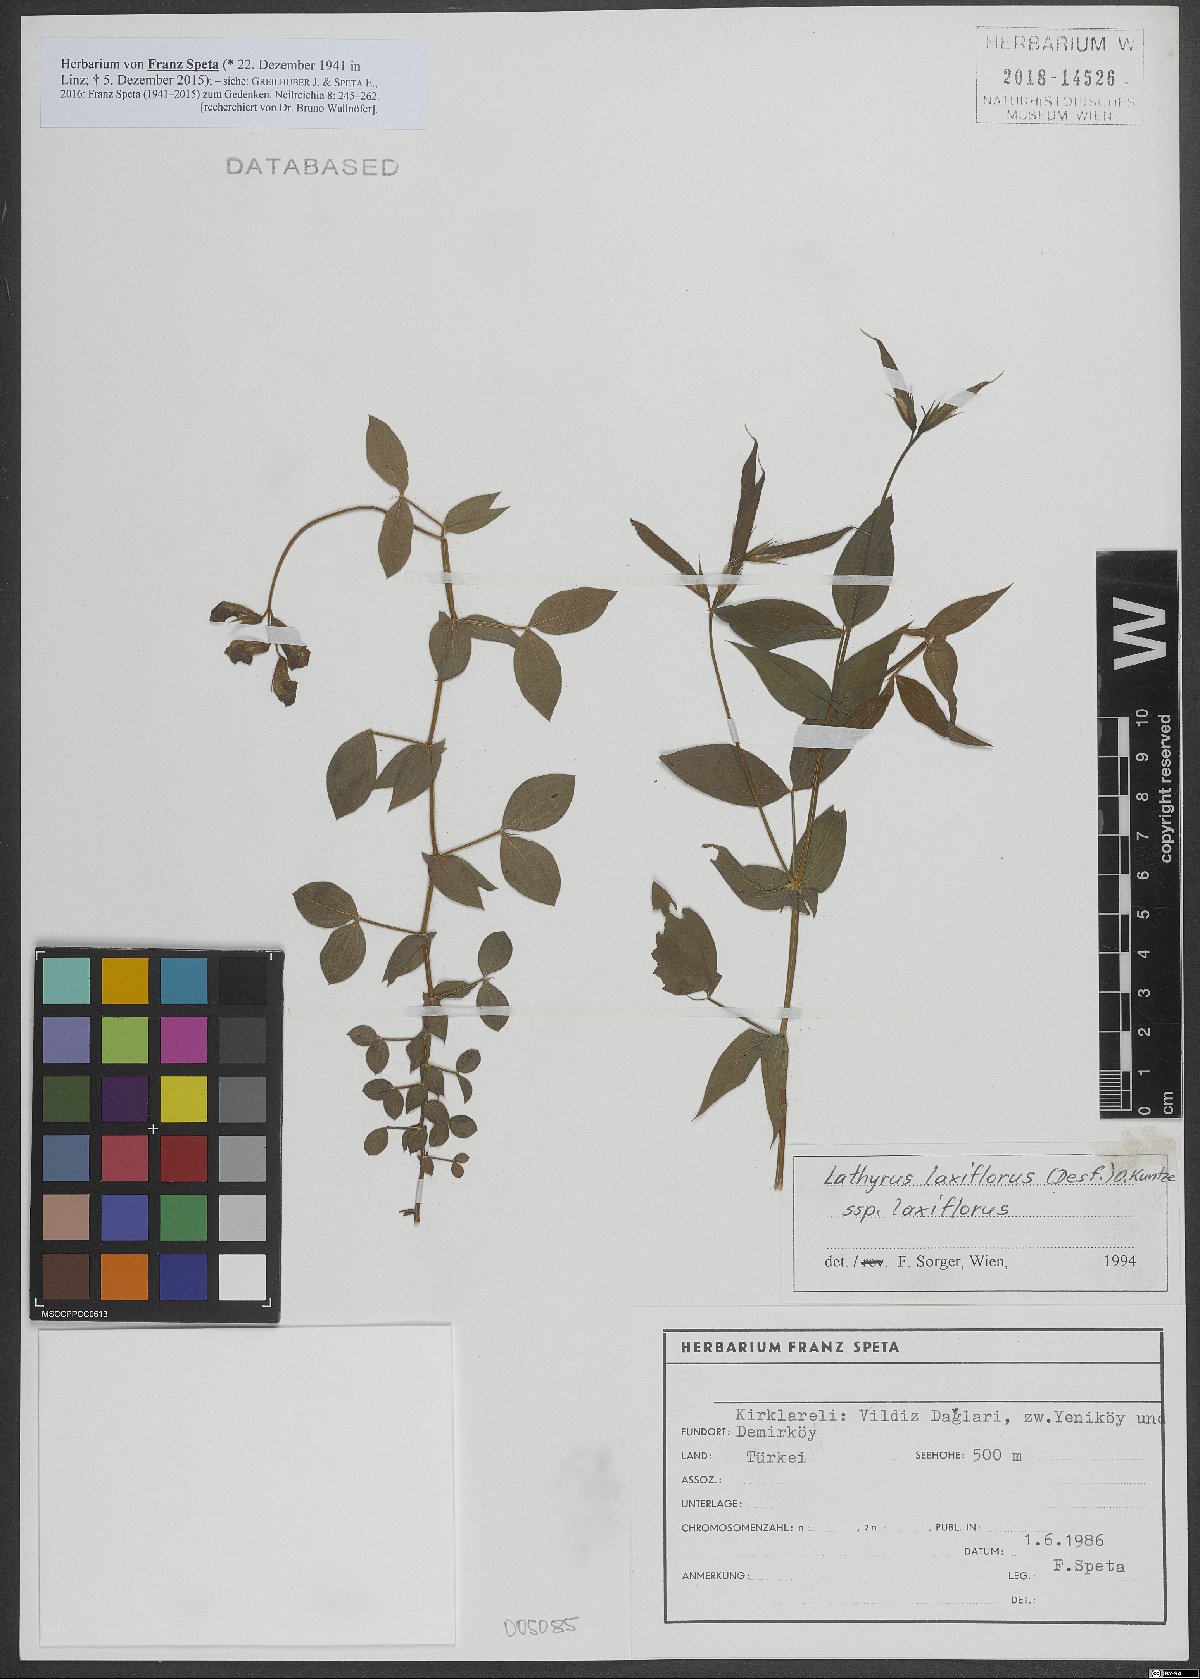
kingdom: Plantae
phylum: Tracheophyta
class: Magnoliopsida
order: Fabales
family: Fabaceae
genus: Lathyrus
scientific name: Lathyrus laxiflorus
